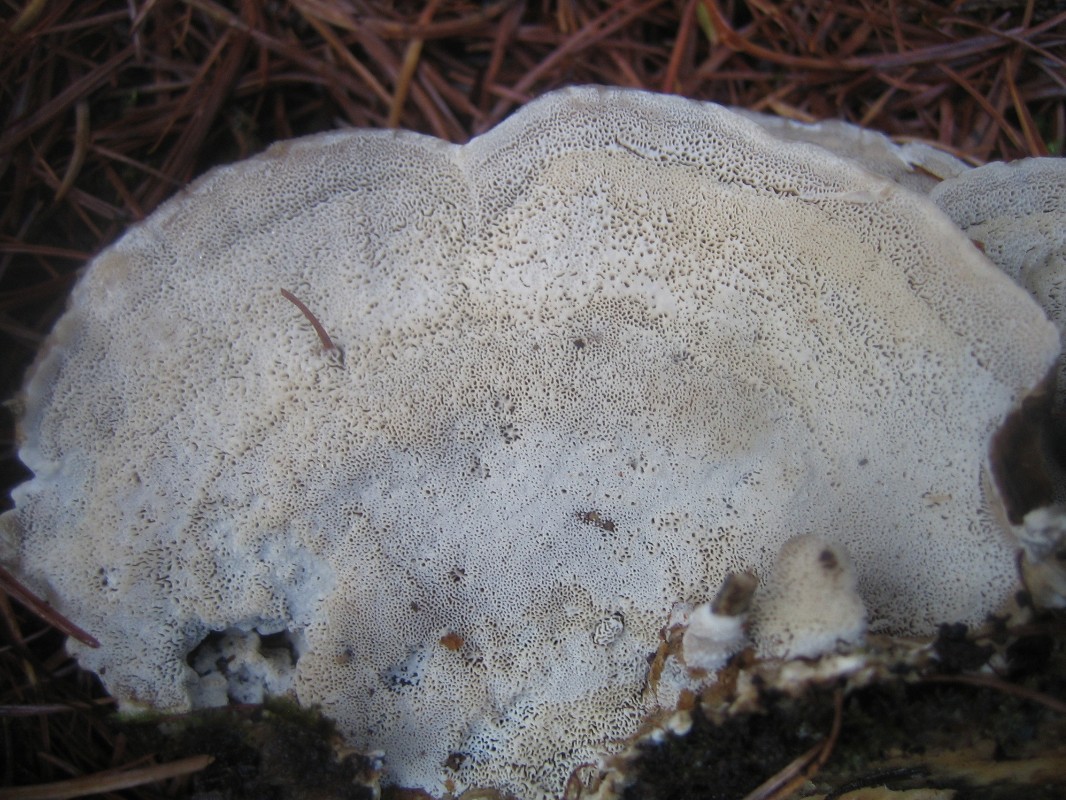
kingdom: Fungi
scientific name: Fungi
